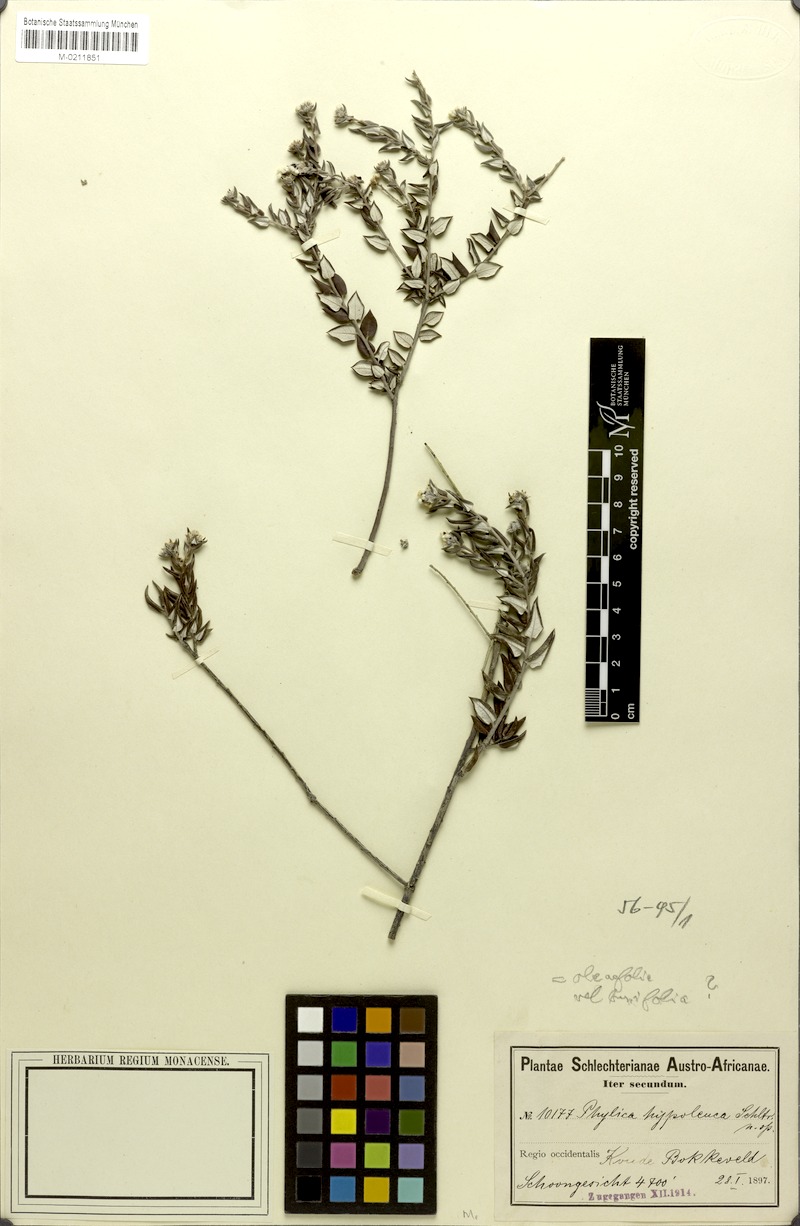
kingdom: Plantae
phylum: Tracheophyta
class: Magnoliopsida
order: Rosales
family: Rhamnaceae
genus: Phylica
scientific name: Phylica
